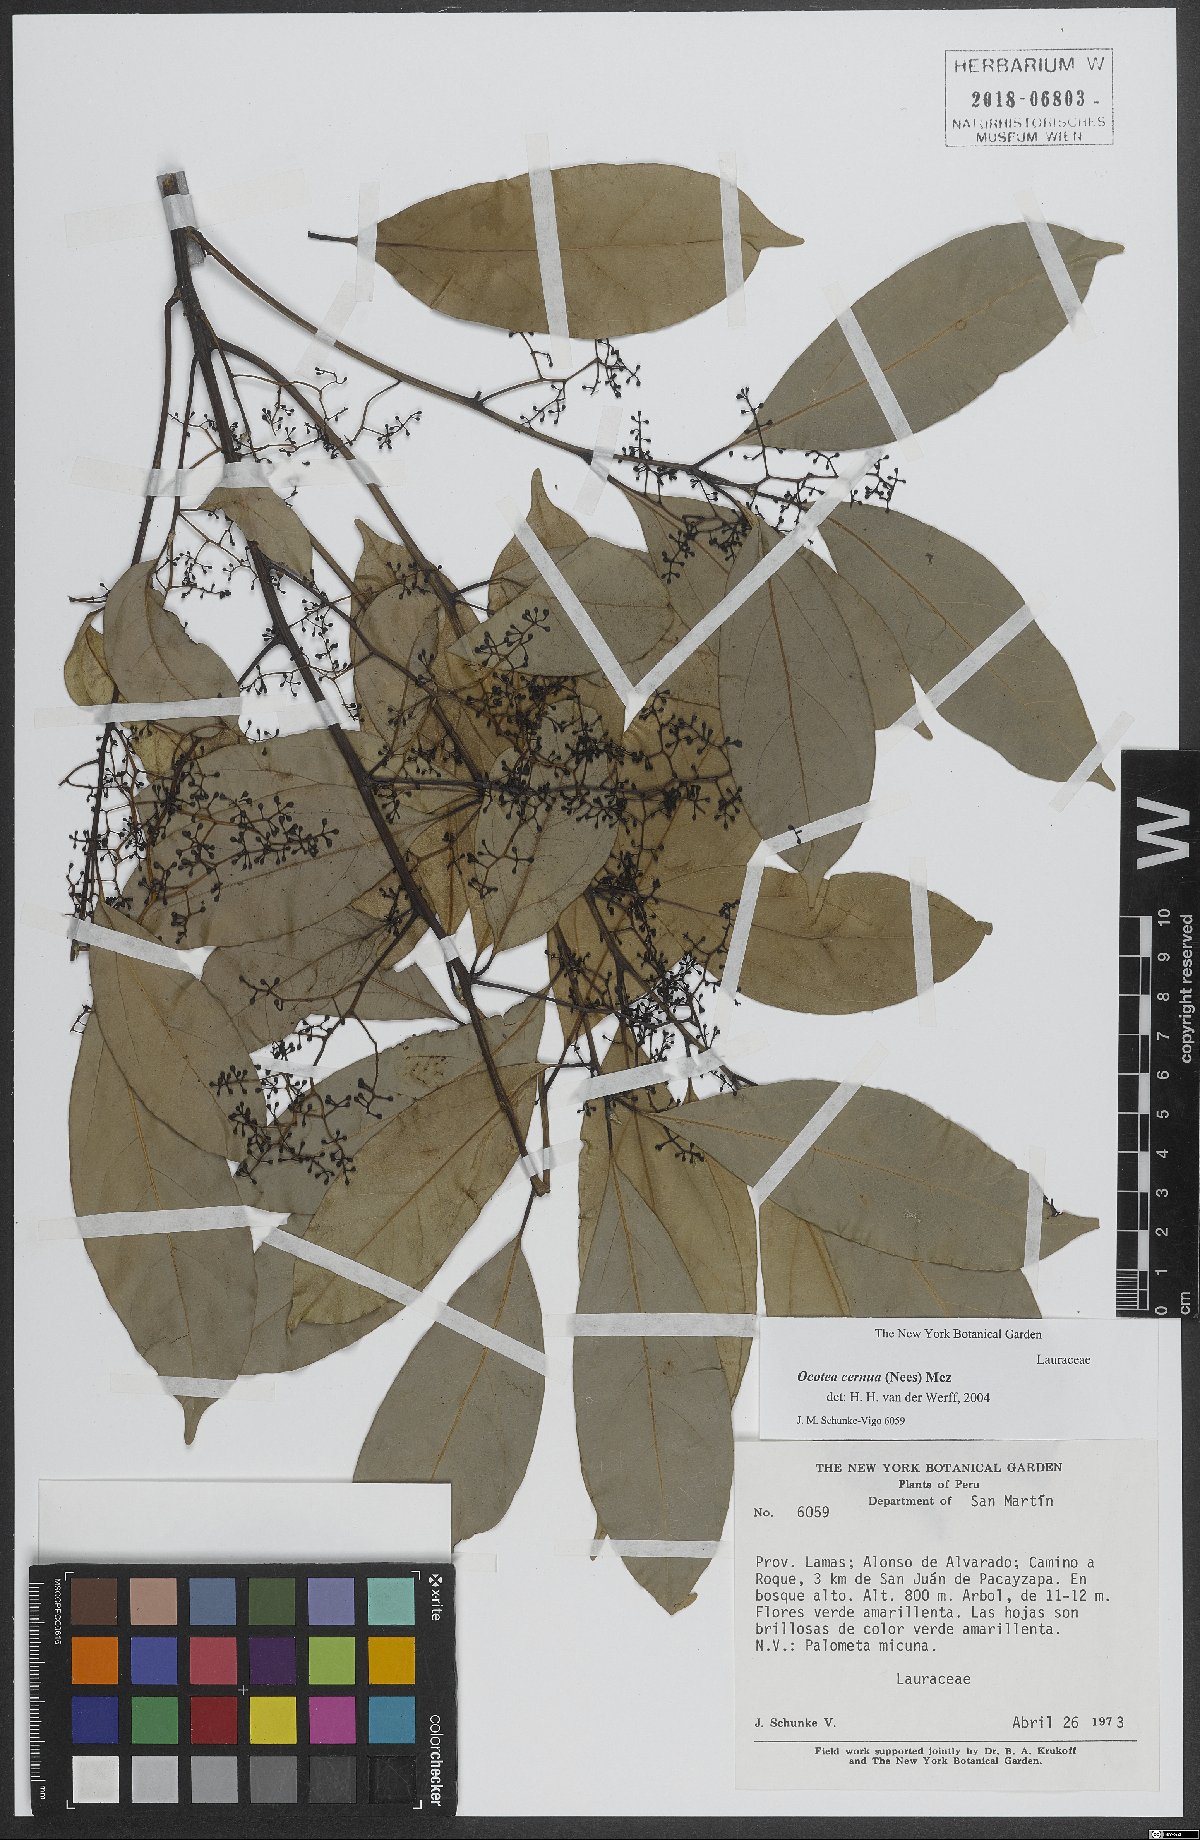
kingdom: Plantae
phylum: Tracheophyta
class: Magnoliopsida
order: Laurales
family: Lauraceae
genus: Ocotea
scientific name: Ocotea leptobotra
